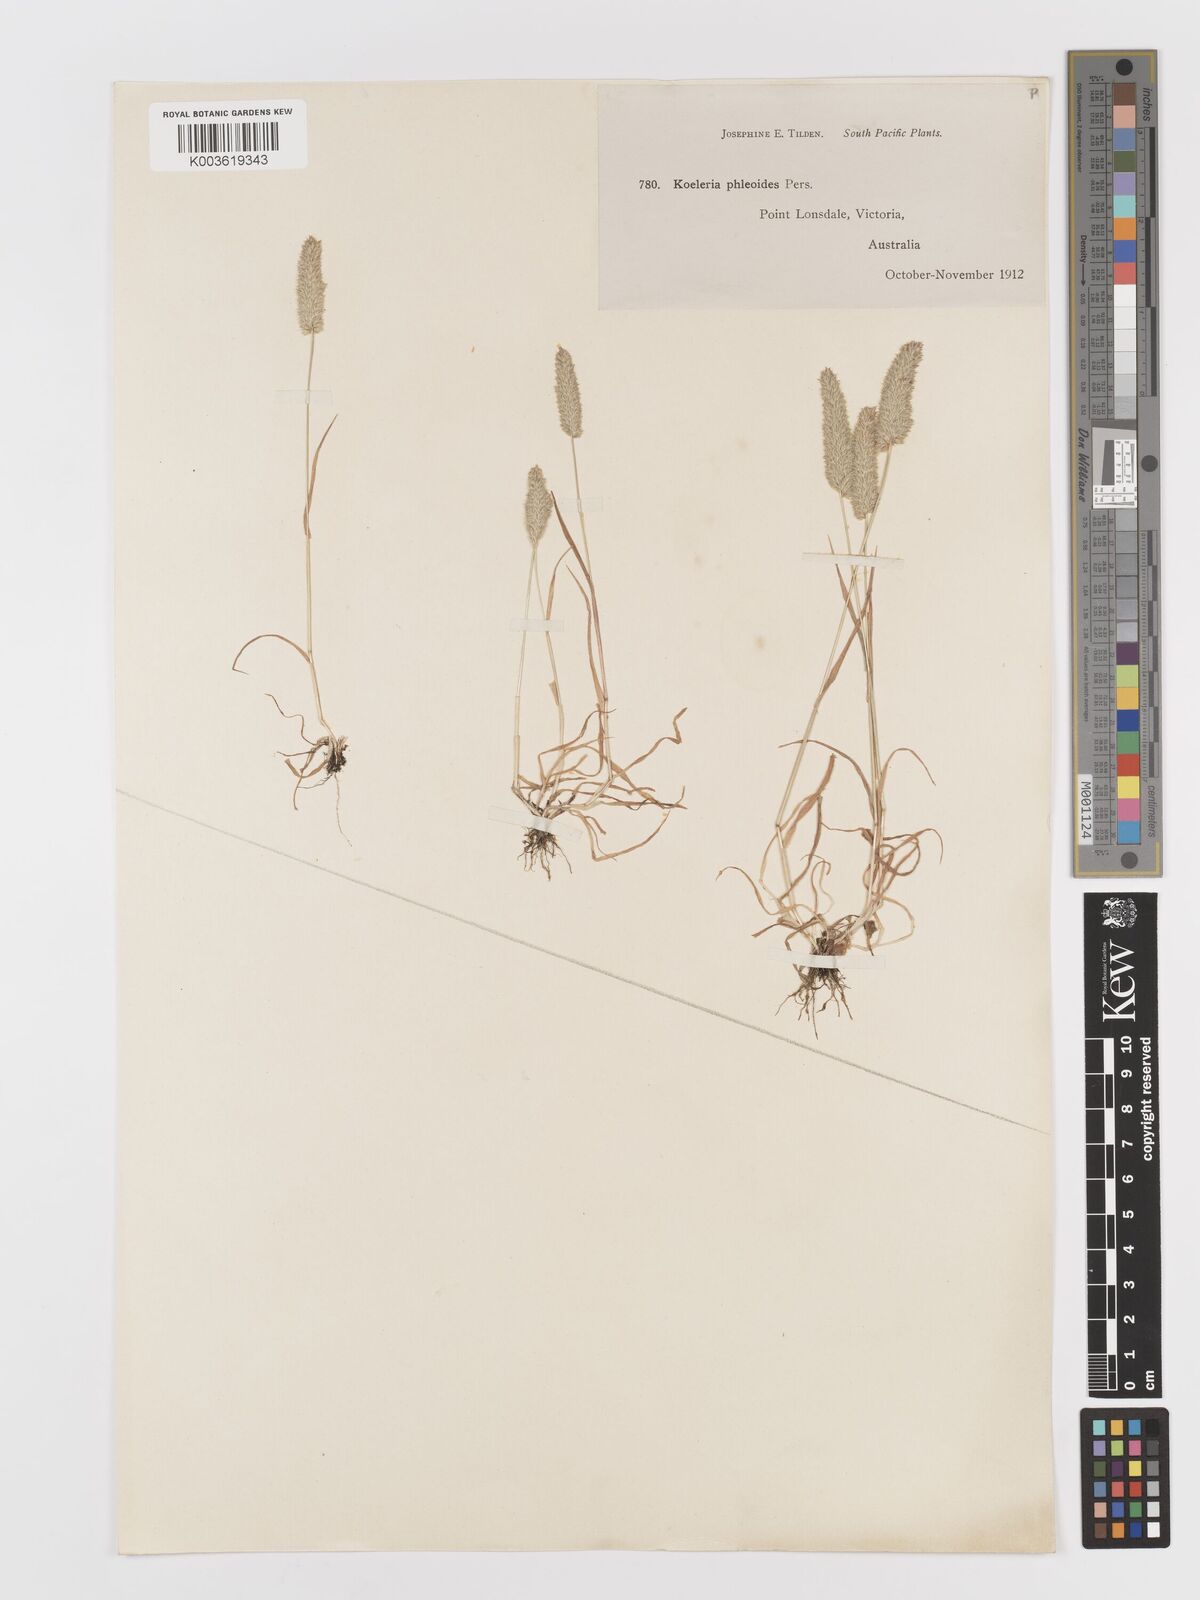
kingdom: Plantae
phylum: Tracheophyta
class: Liliopsida
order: Poales
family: Poaceae
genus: Rostraria
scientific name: Rostraria cristata
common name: Mediterranean hair-grass
